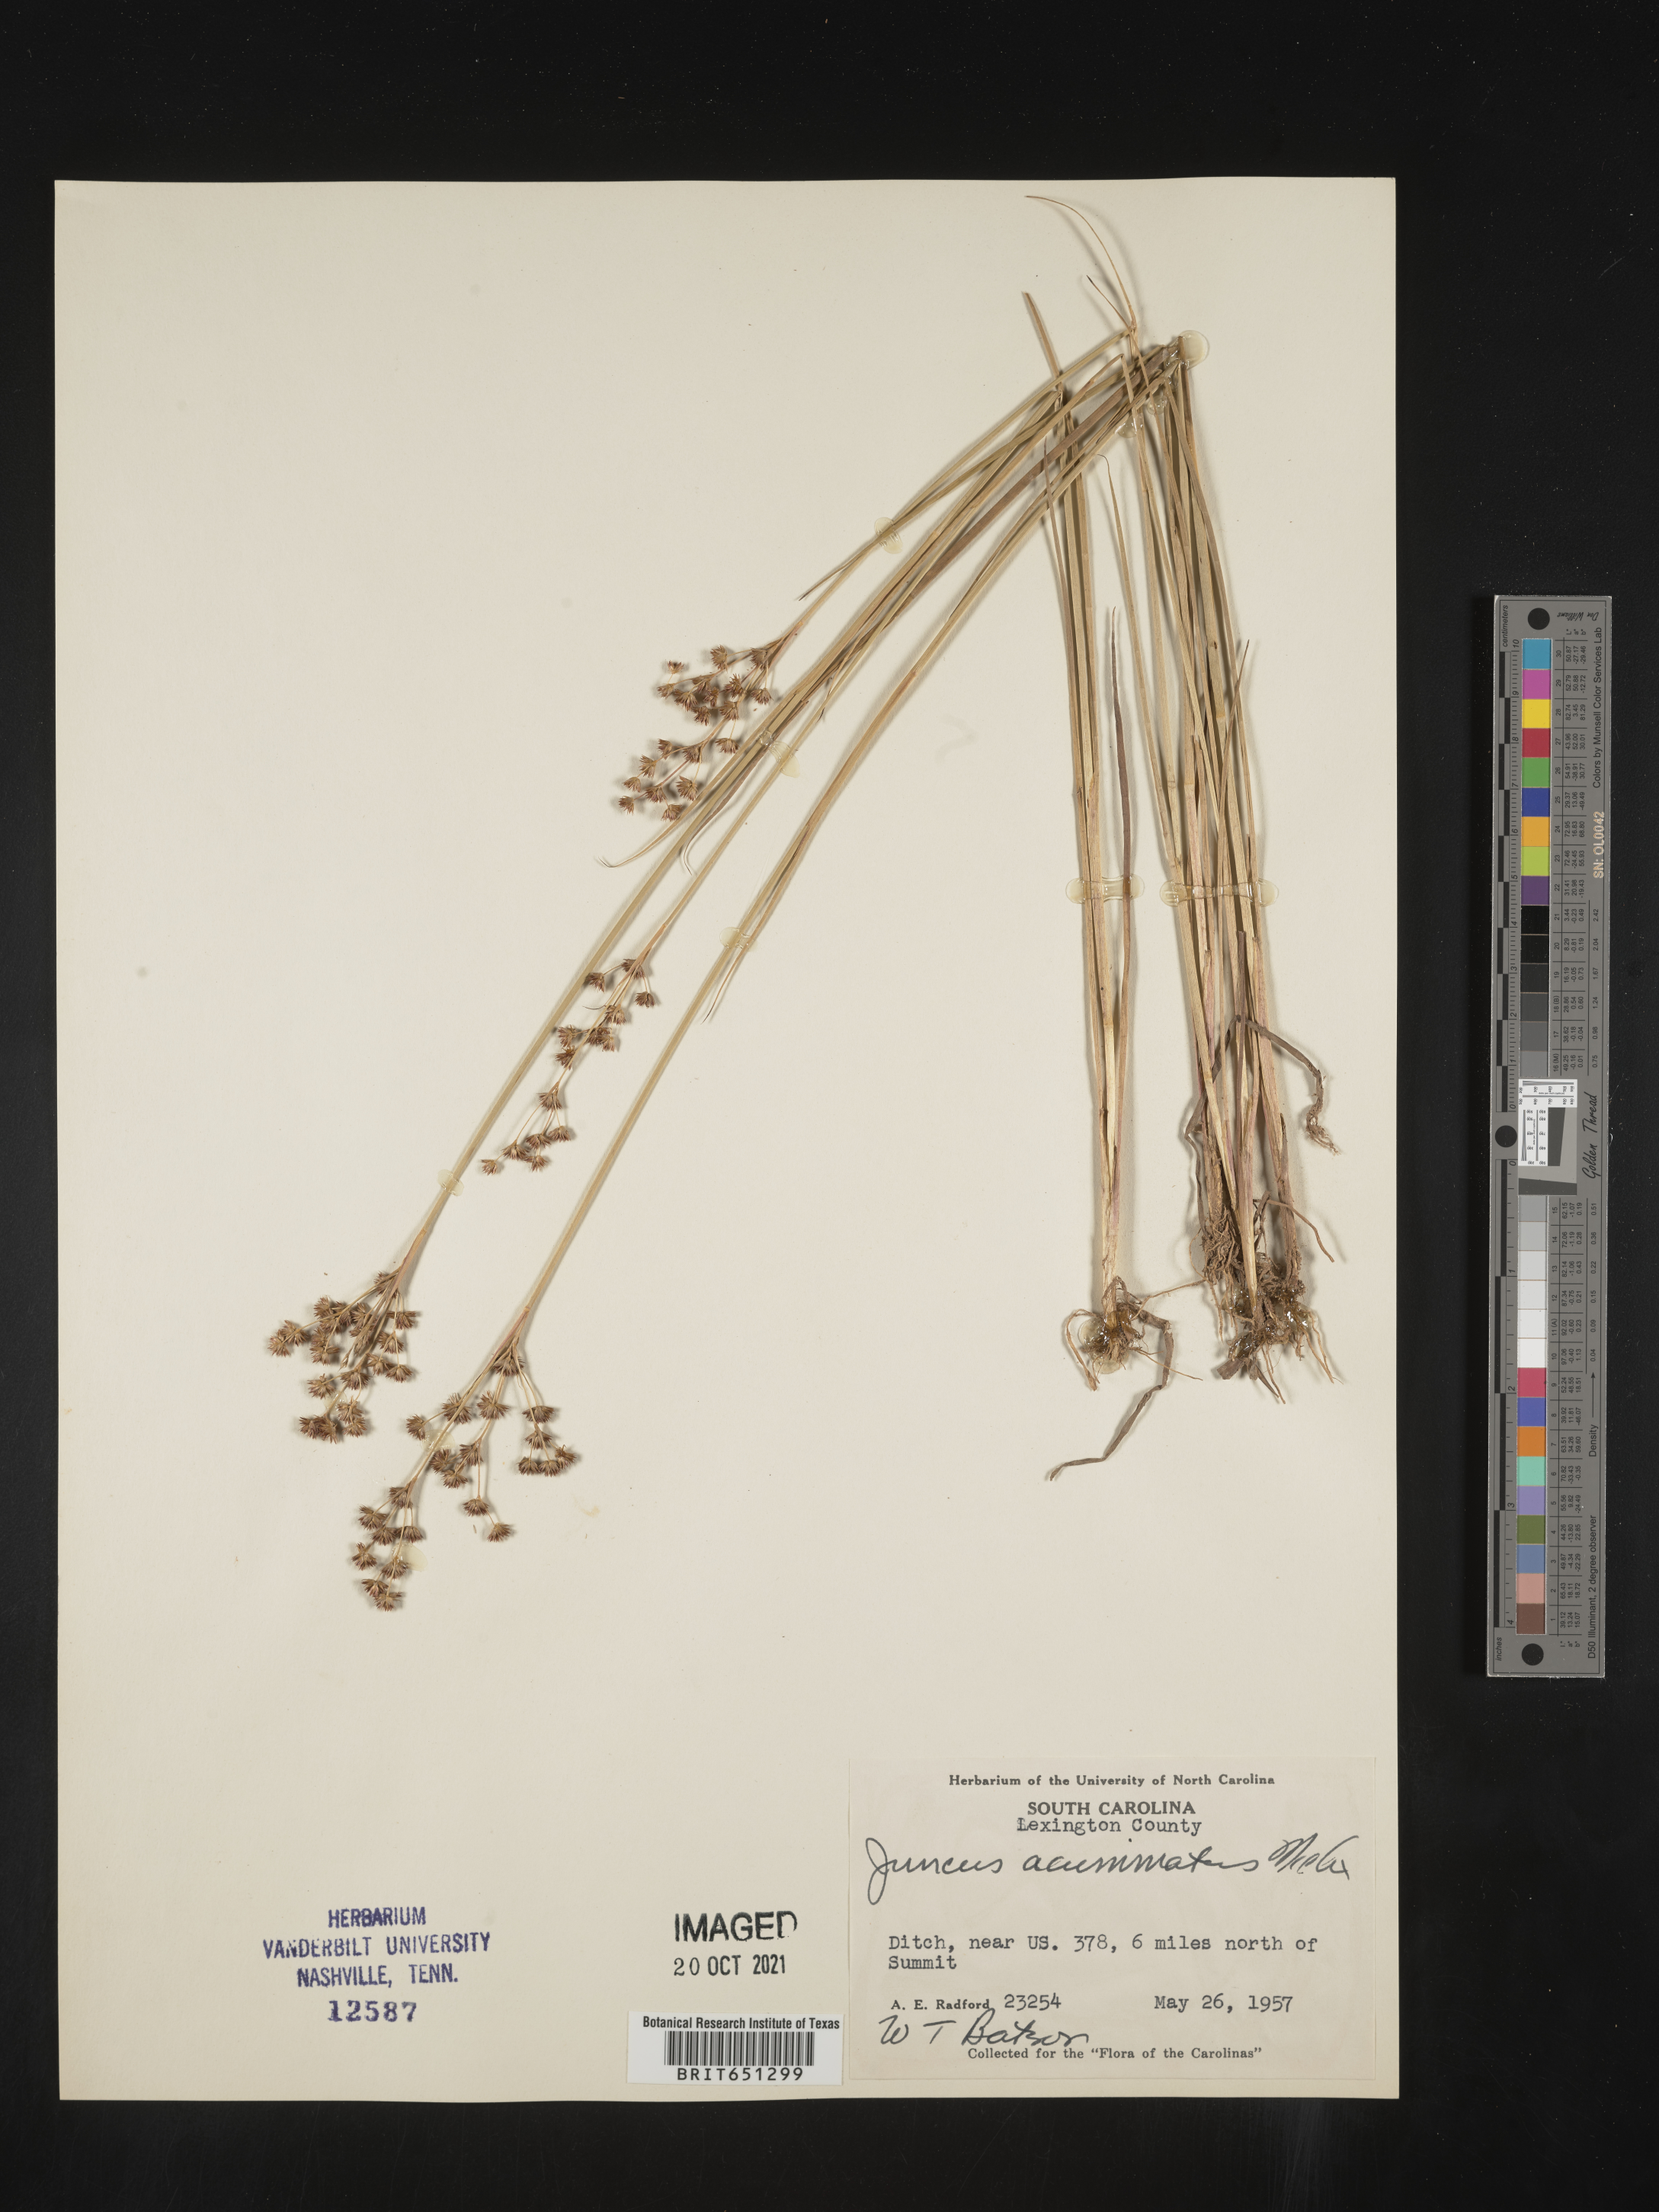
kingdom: Plantae
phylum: Tracheophyta
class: Liliopsida
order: Poales
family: Juncaceae
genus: Juncus
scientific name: Juncus acuminatus
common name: Knotty-leaved rush
